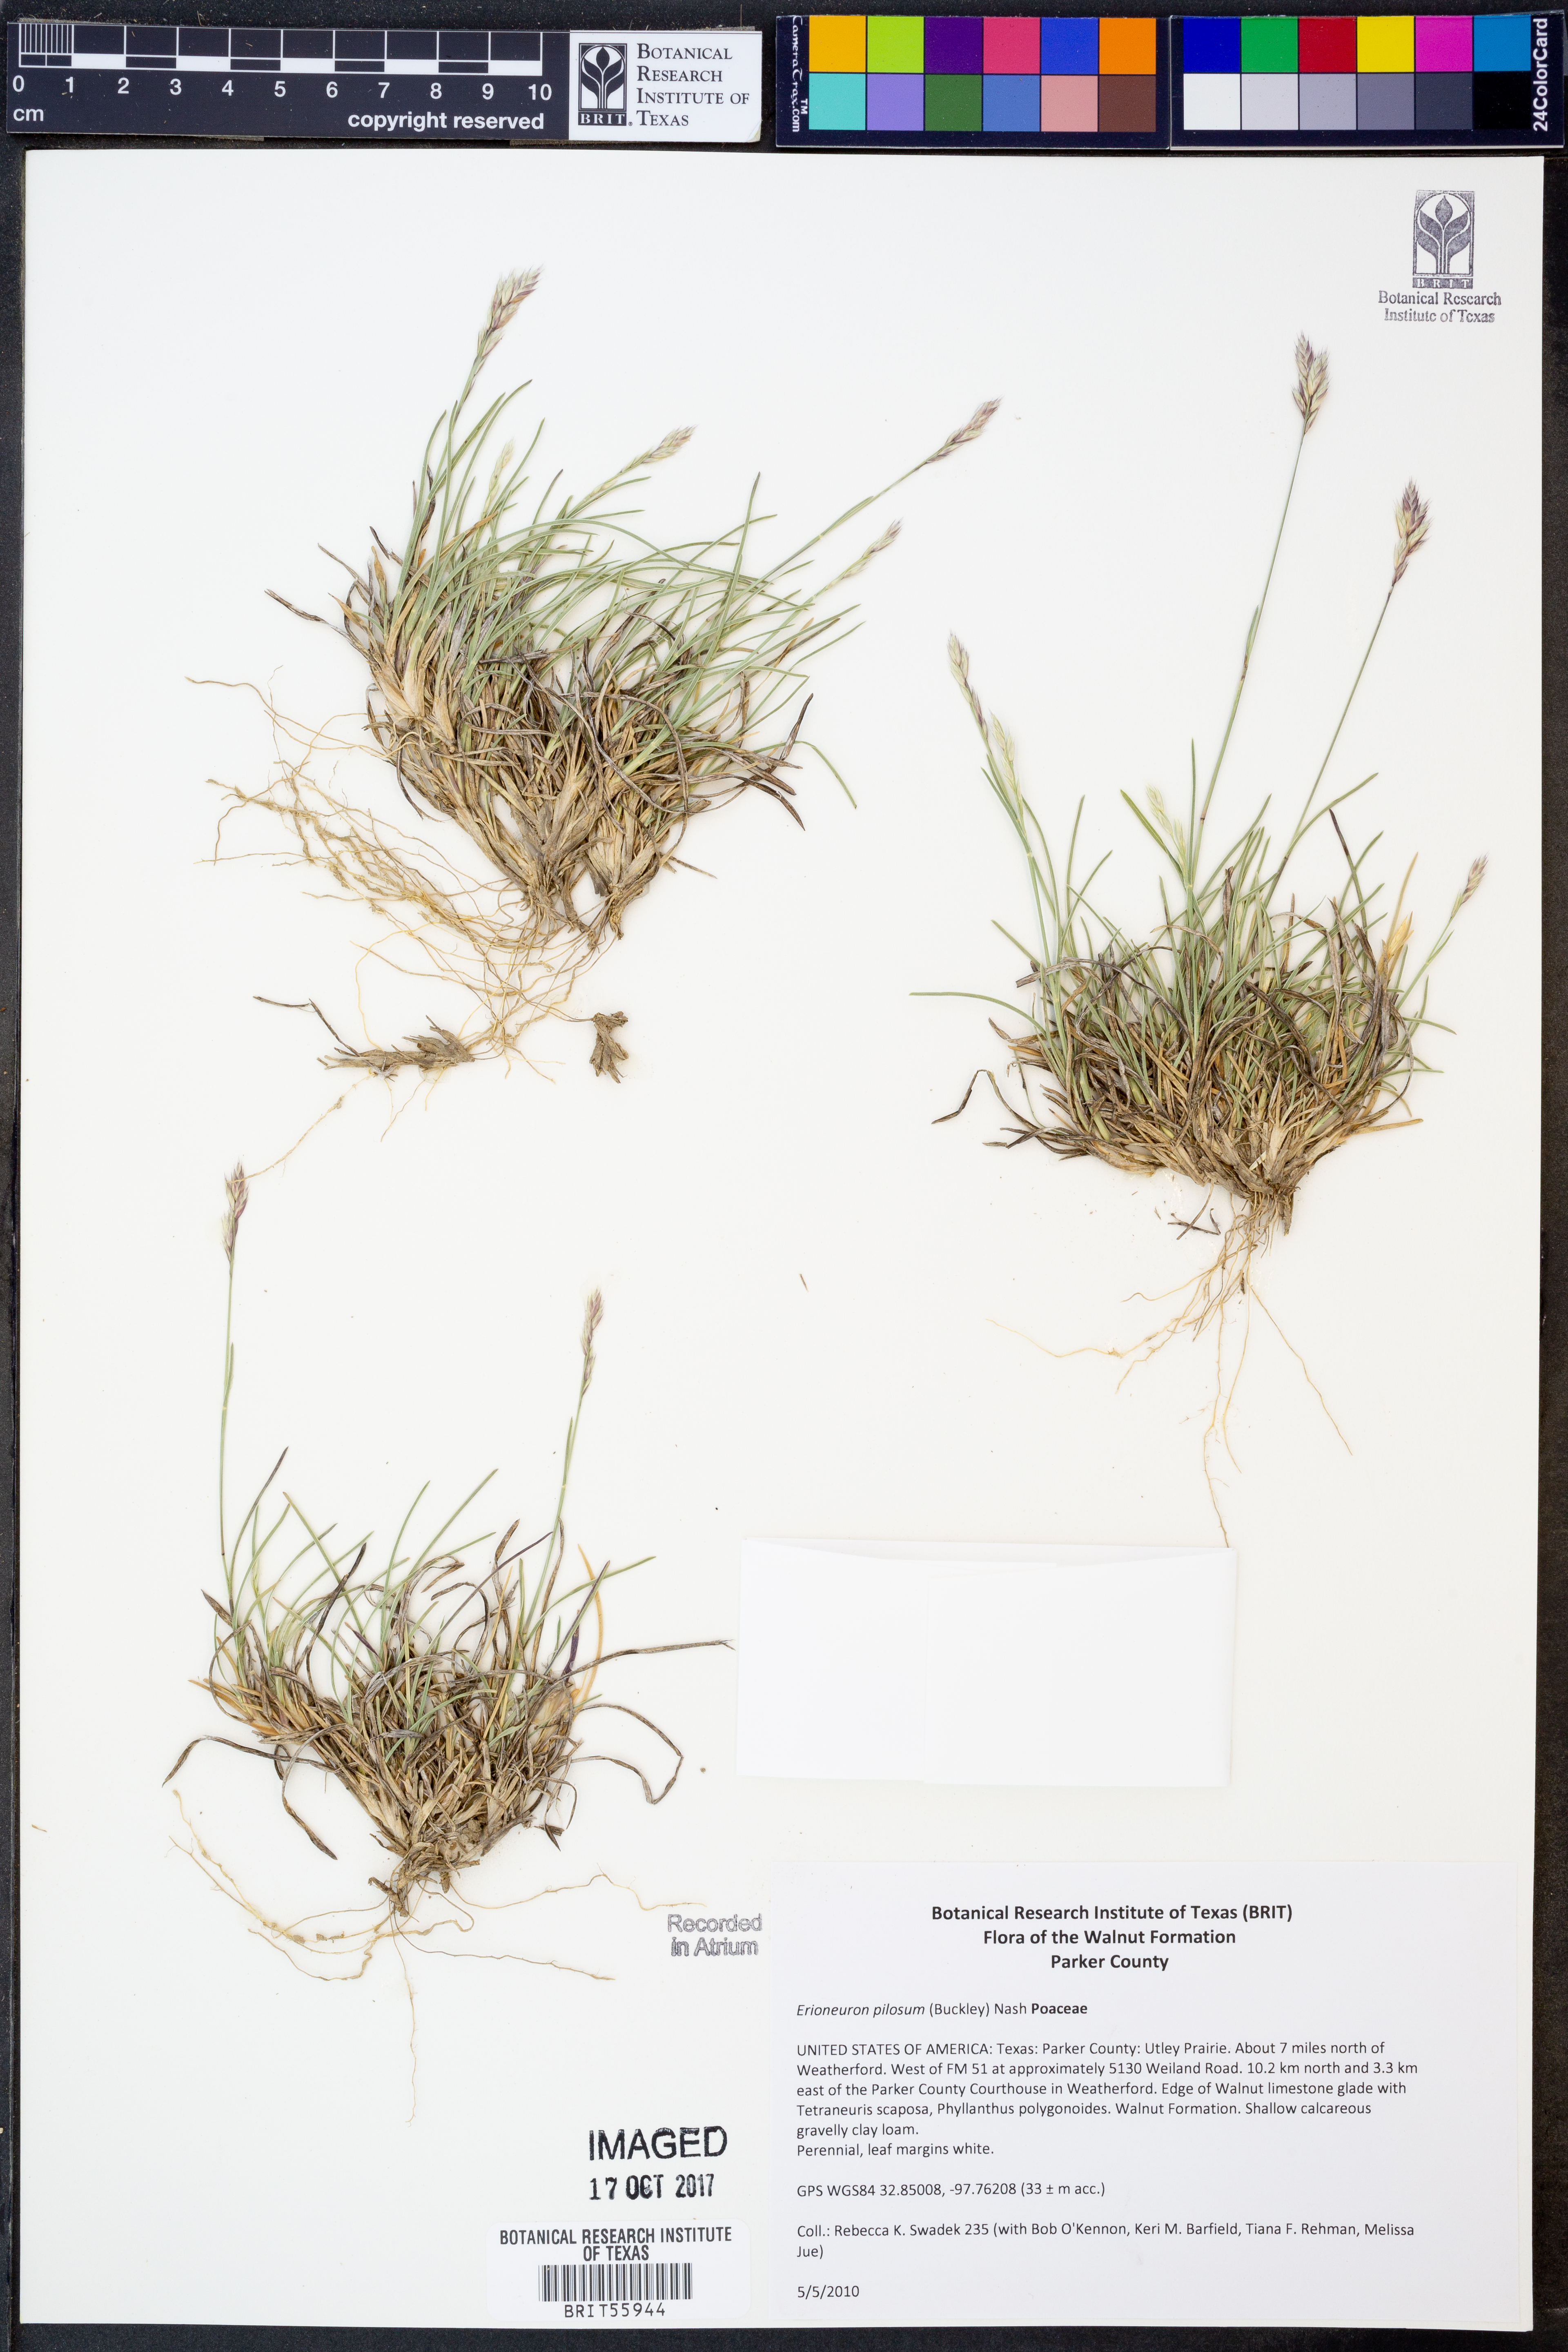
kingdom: Plantae
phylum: Tracheophyta
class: Liliopsida
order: Poales
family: Poaceae
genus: Erioneuron
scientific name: Erioneuron pilosum
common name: Hairy woolly grass
